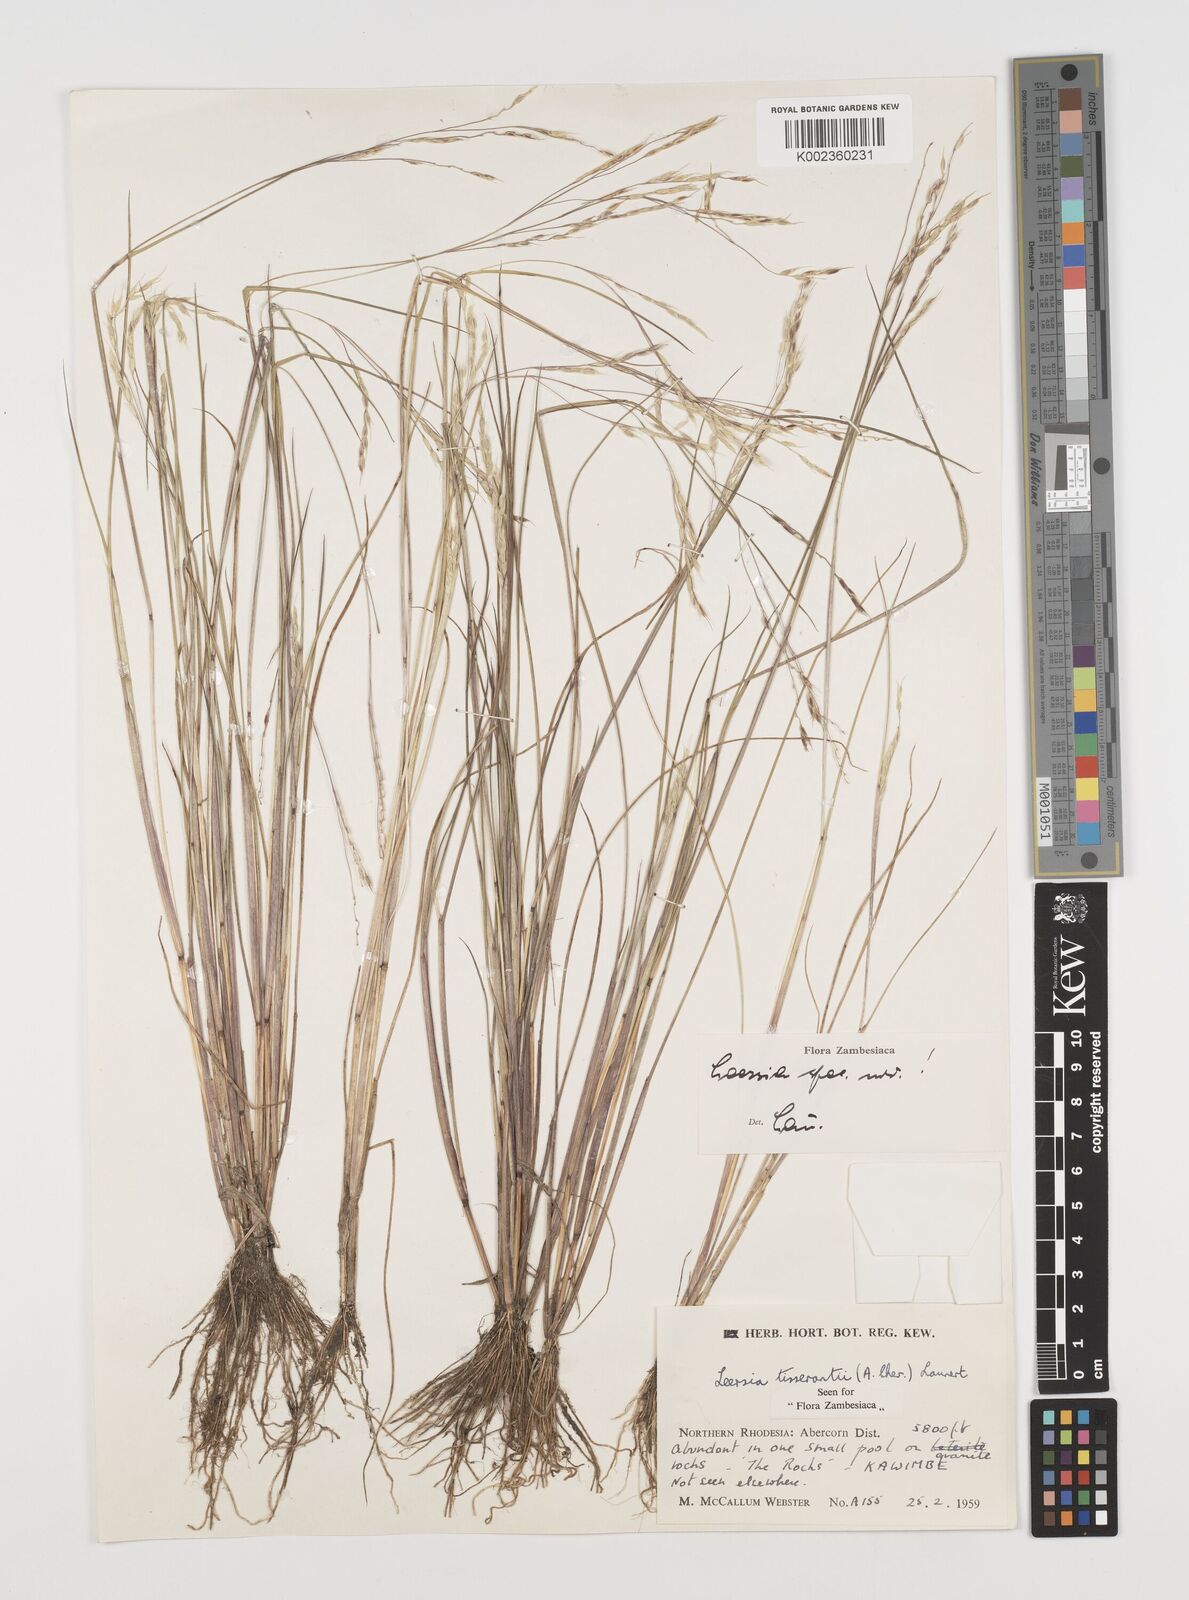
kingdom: Plantae
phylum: Tracheophyta
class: Liliopsida
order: Poales
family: Poaceae
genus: Leersia
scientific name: Leersia tisserantii
